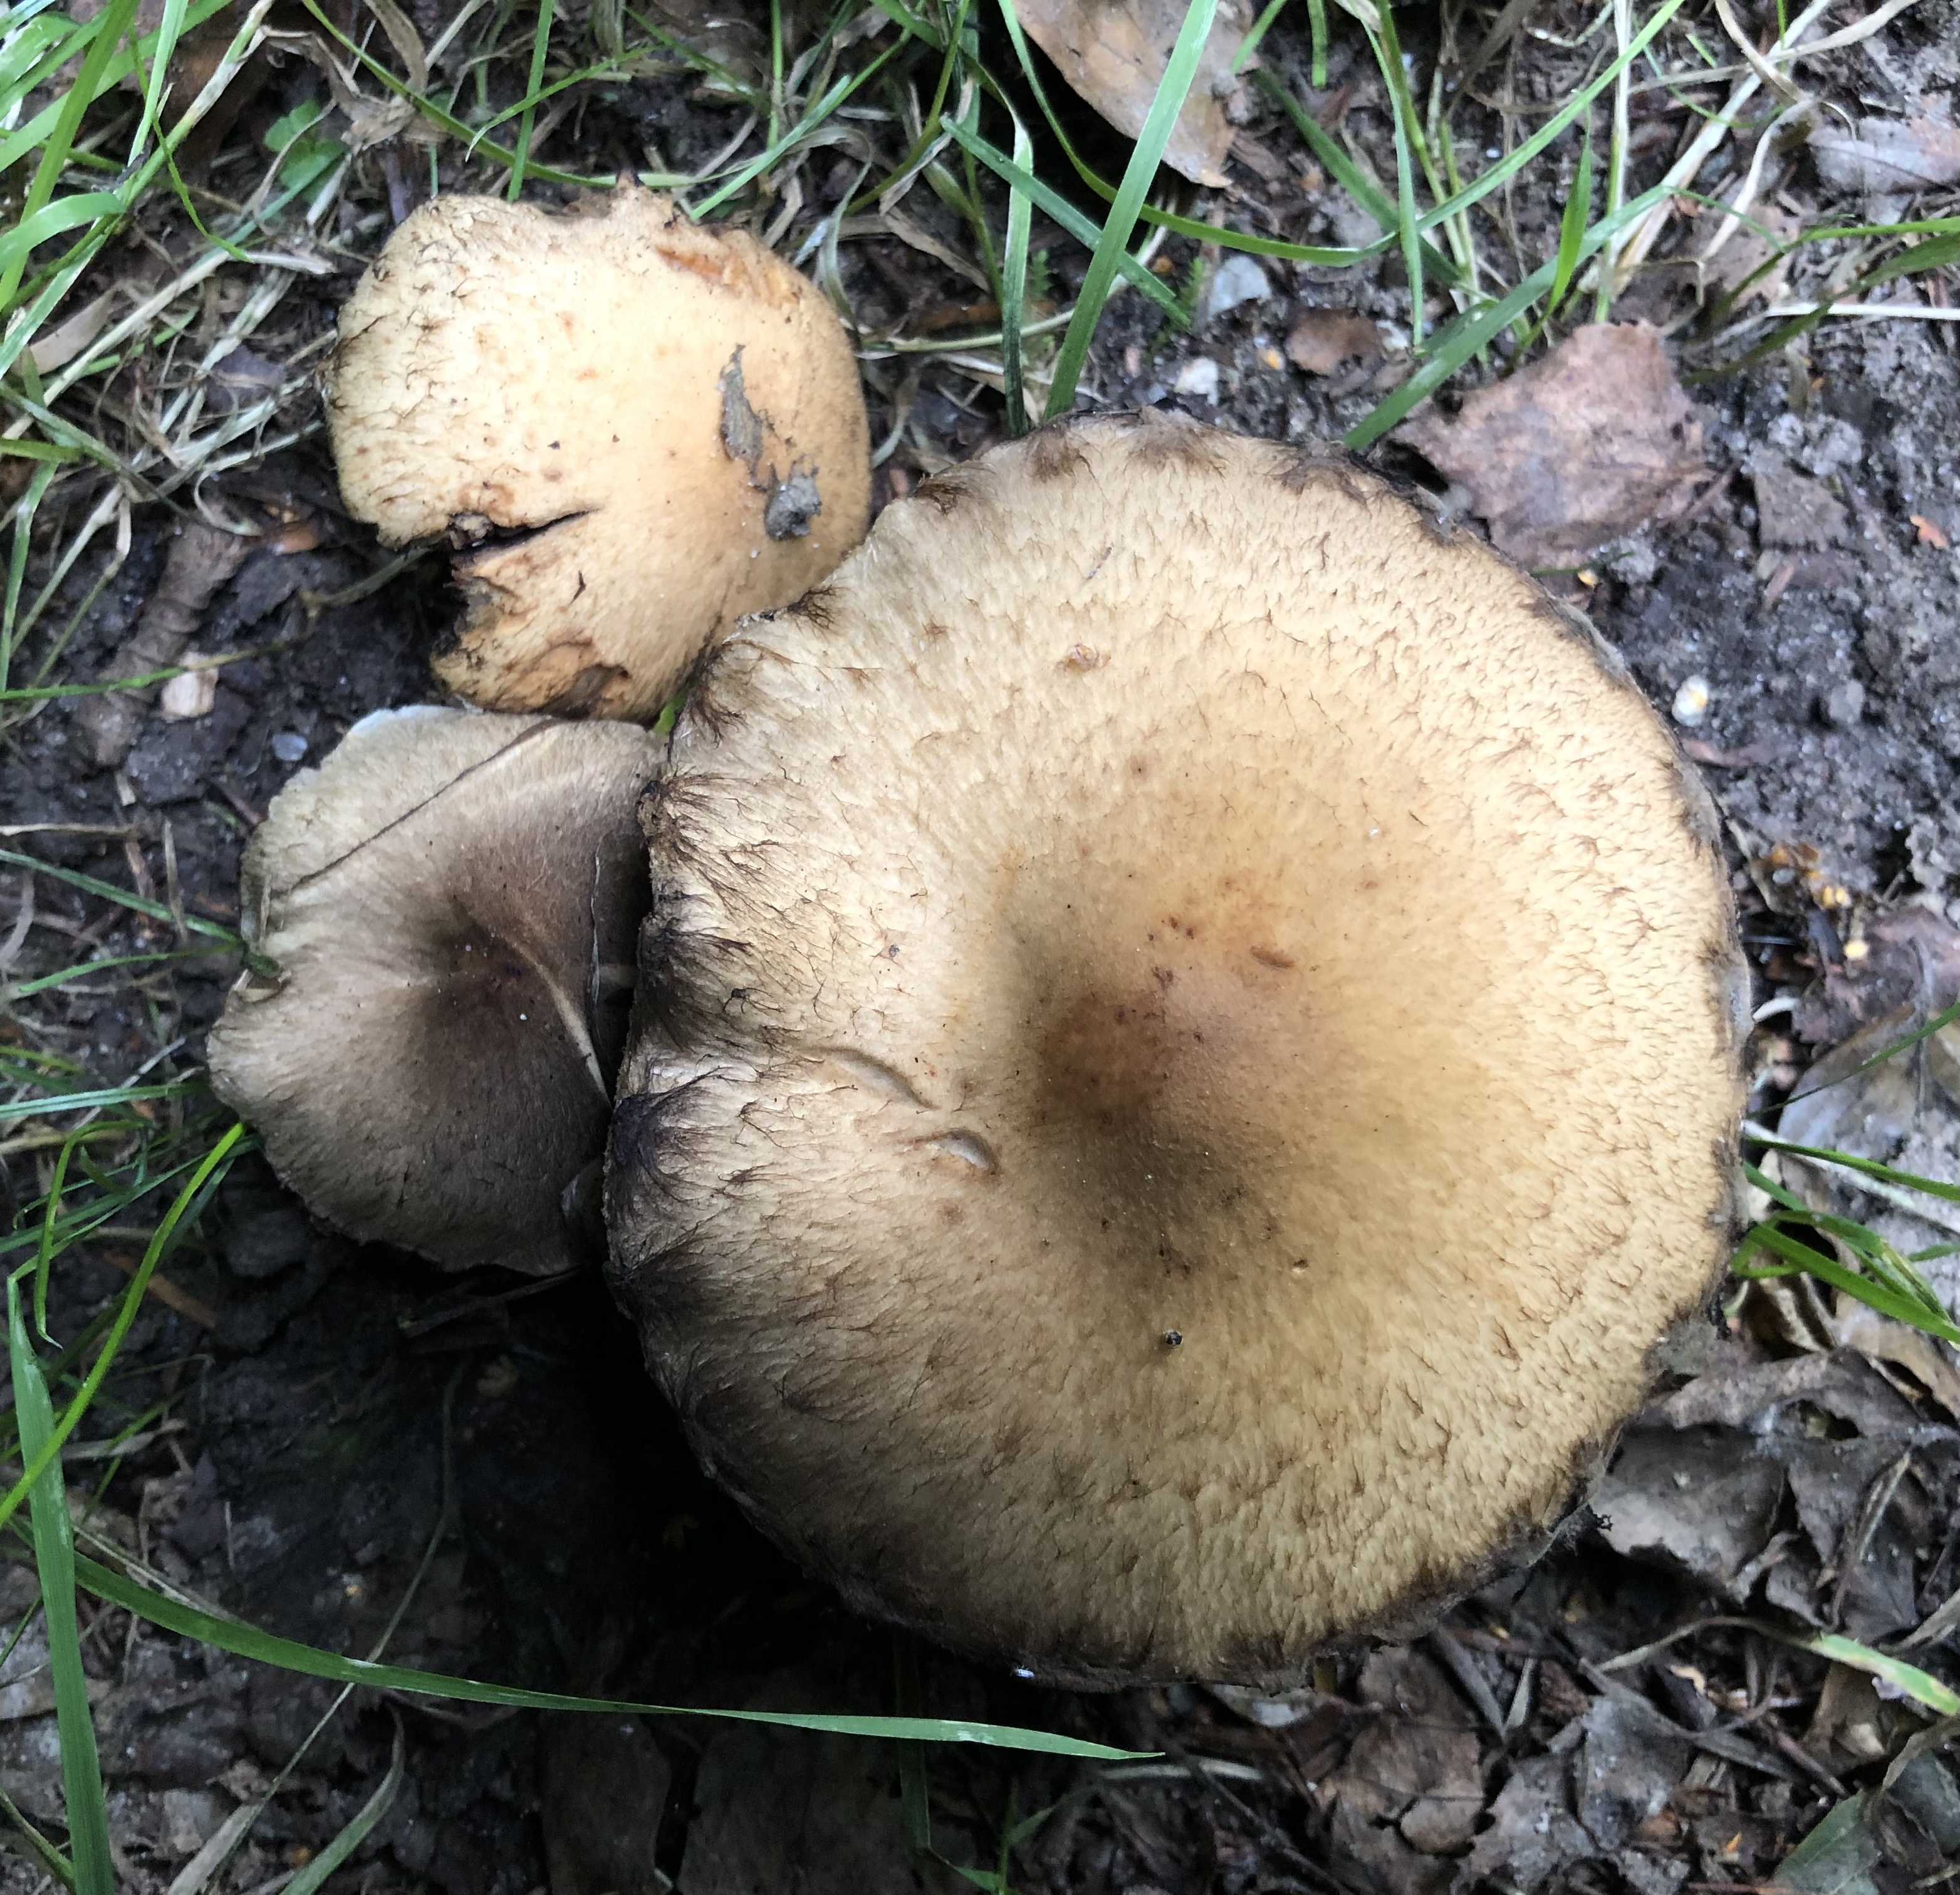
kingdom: Fungi
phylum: Basidiomycota
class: Agaricomycetes
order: Agaricales
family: Psathyrellaceae
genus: Lacrymaria
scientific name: Lacrymaria lacrymabunda
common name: grædende mørkhat
